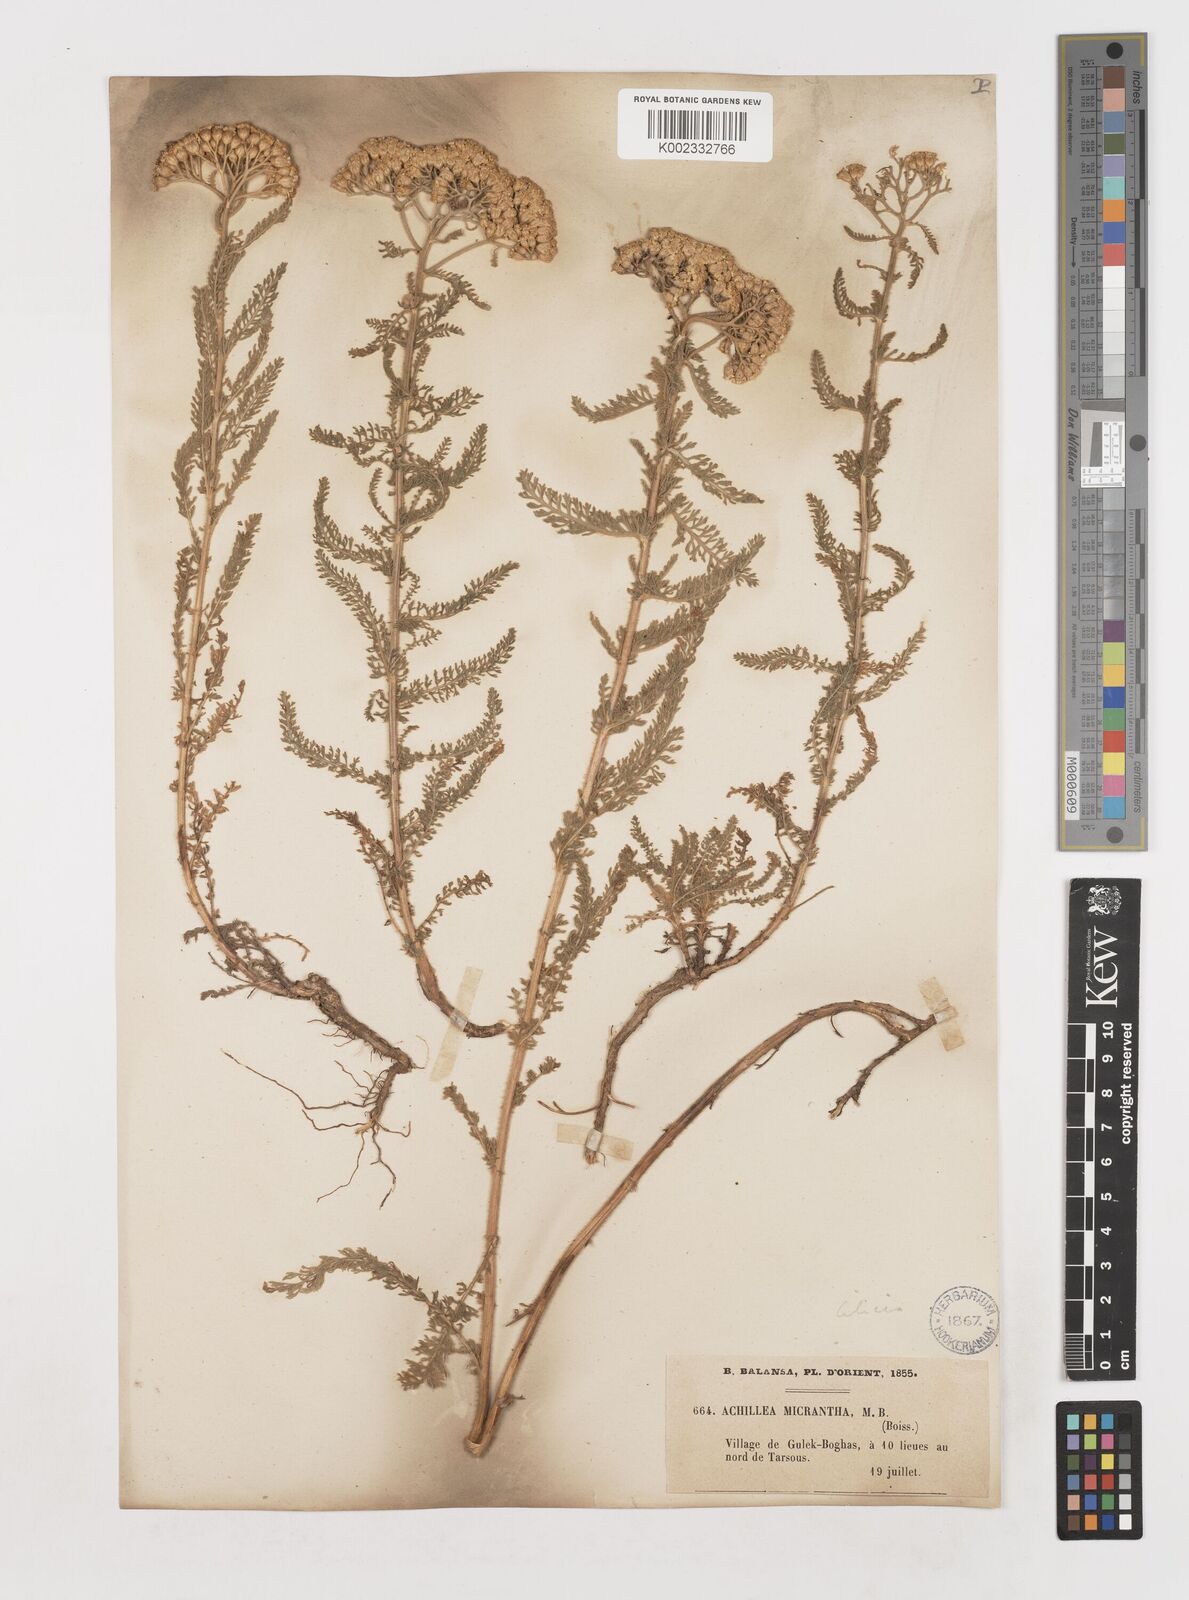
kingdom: Plantae
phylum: Tracheophyta
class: Magnoliopsida
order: Asterales
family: Asteraceae
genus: Achillea
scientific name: Achillea micrantha
